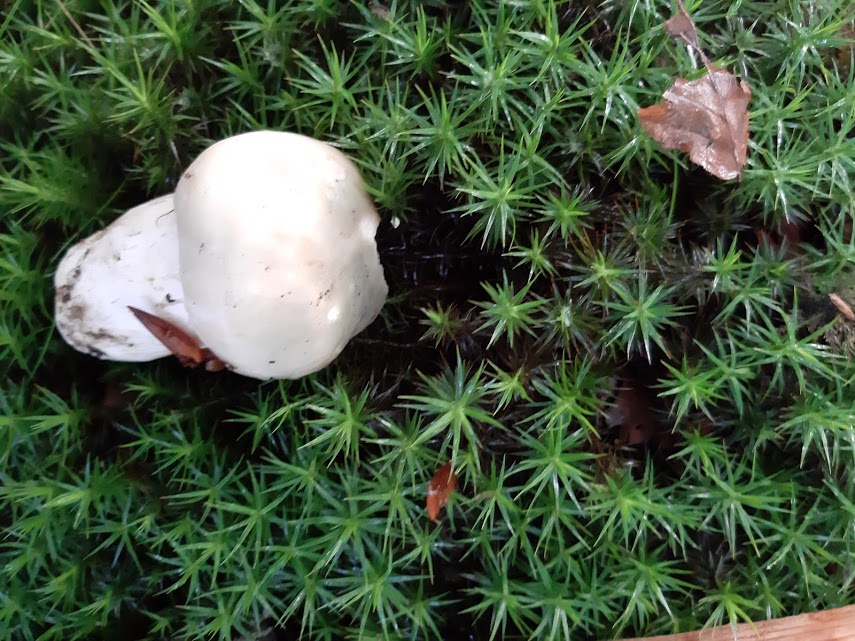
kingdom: Fungi
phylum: Basidiomycota
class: Agaricomycetes
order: Russulales
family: Russulaceae
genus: Russula
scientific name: Russula virescens
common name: spanskgrøn skørhat
